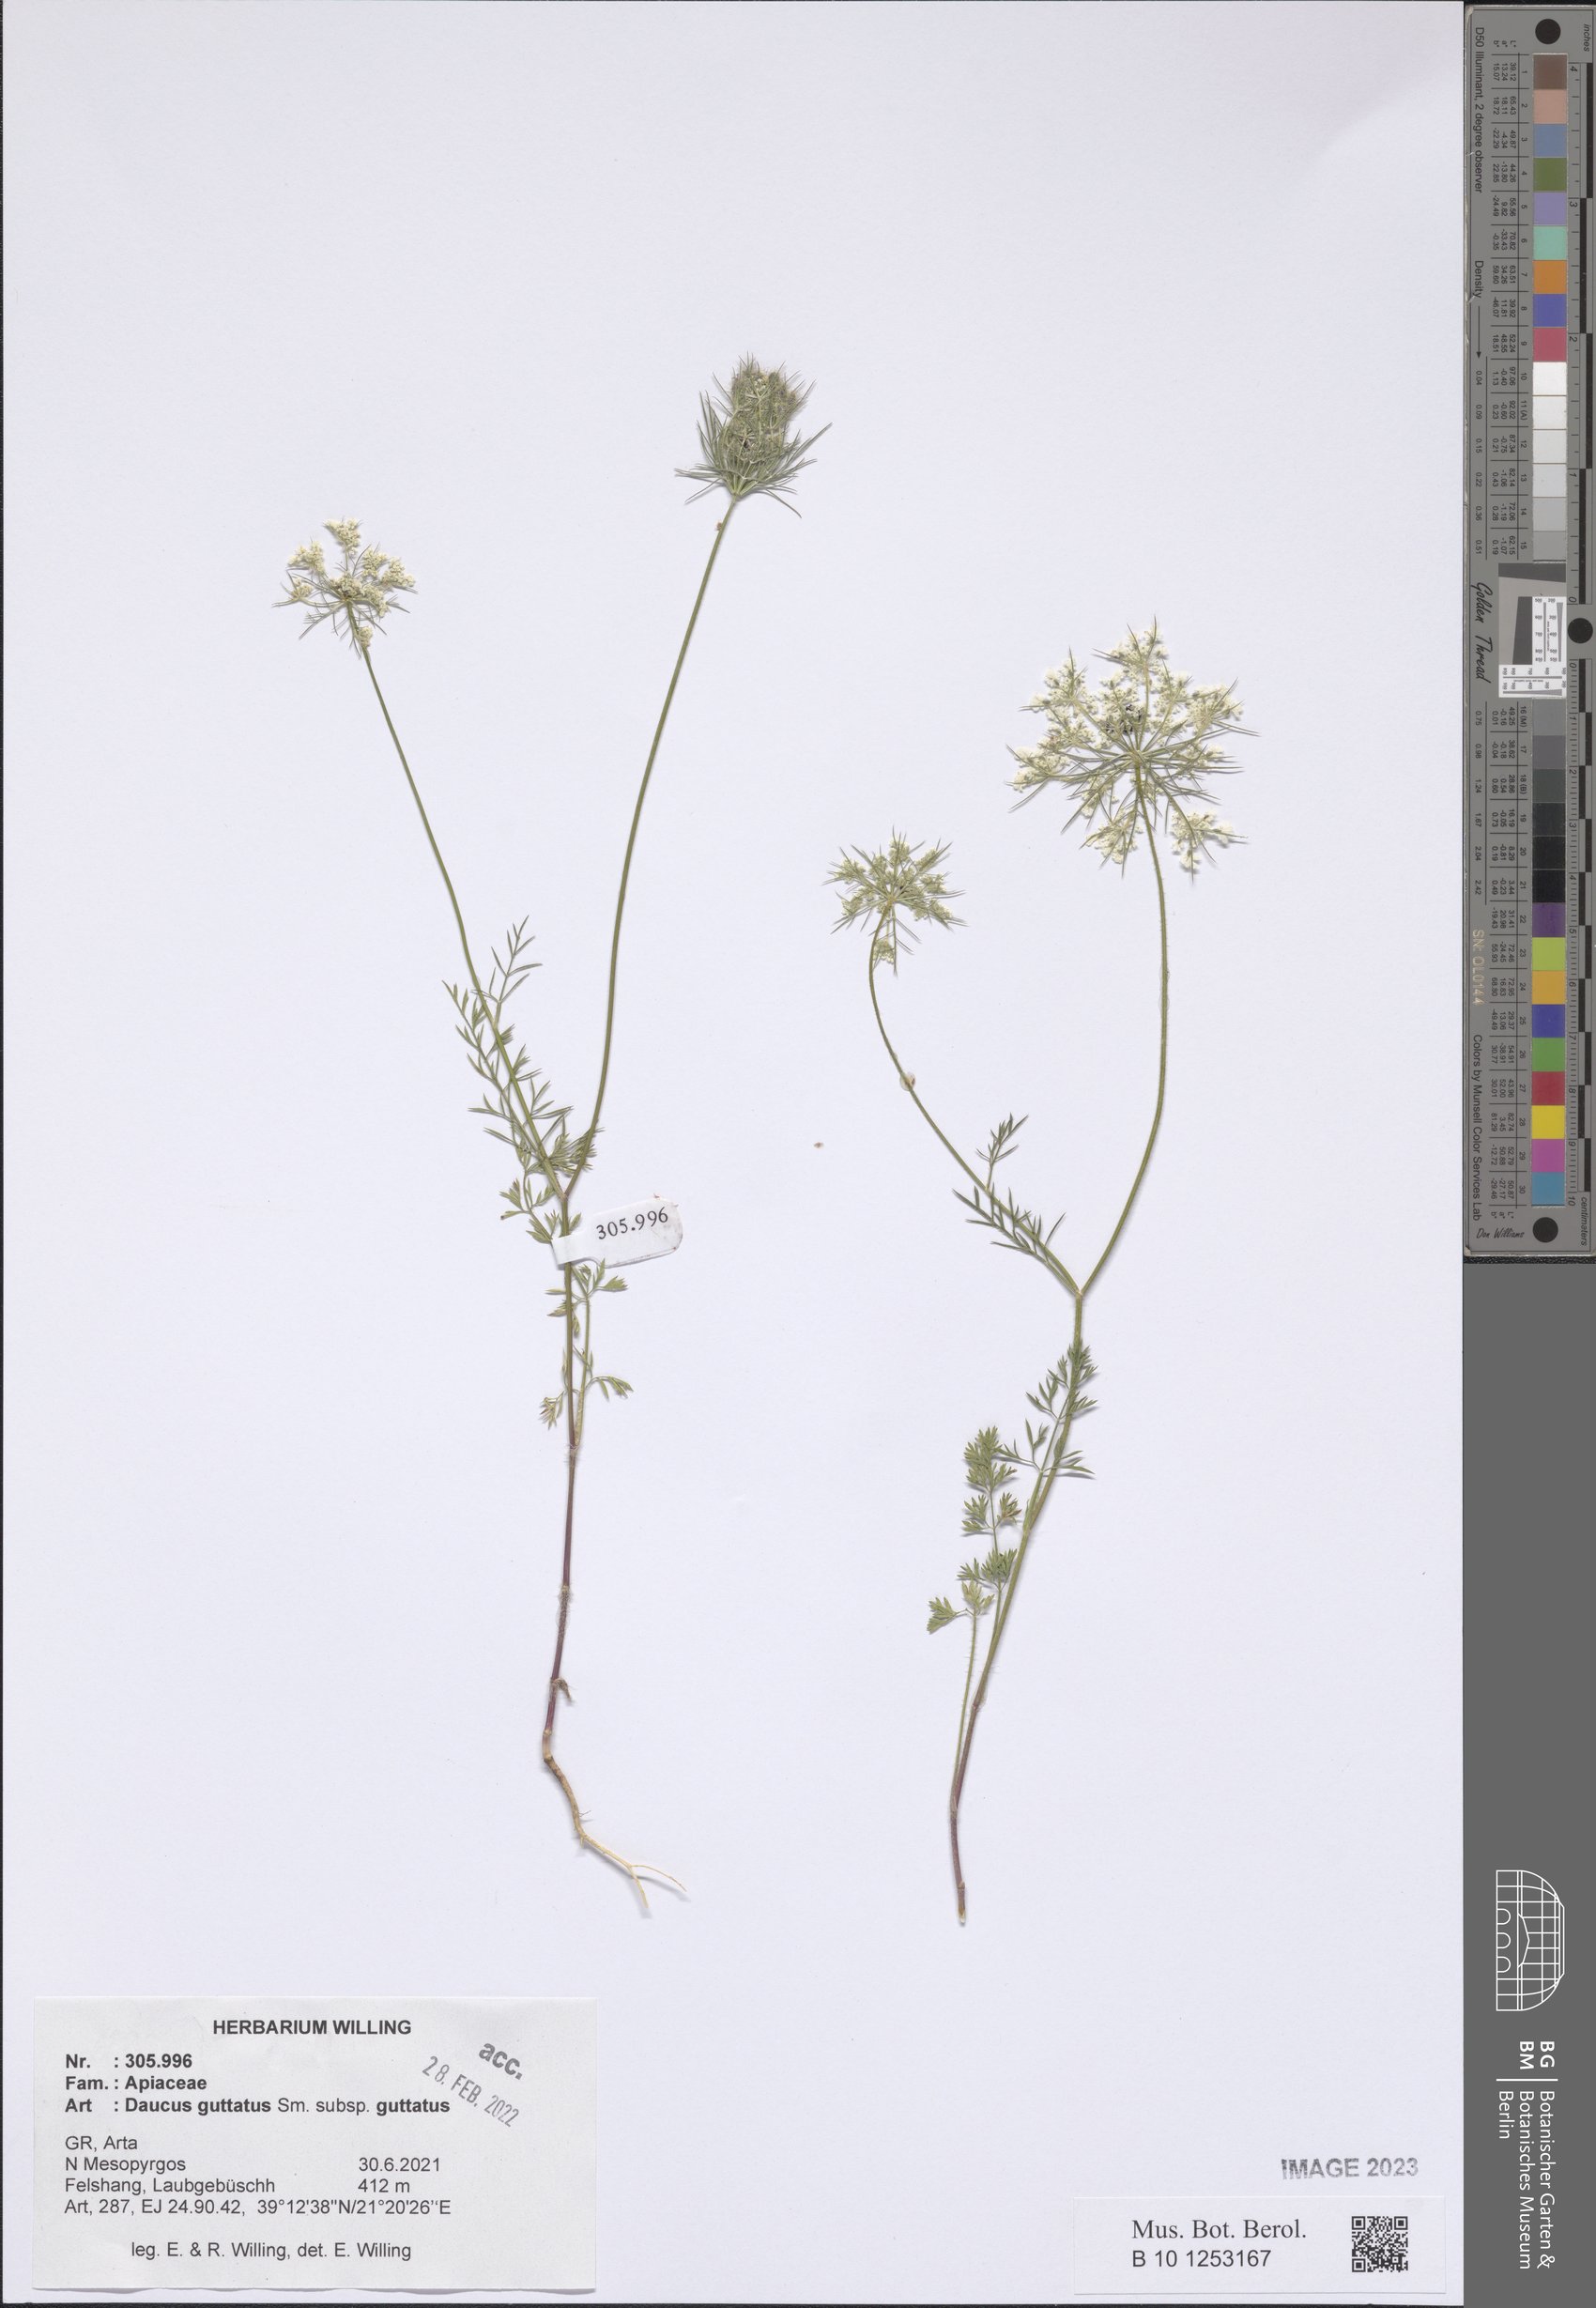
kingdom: Plantae
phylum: Tracheophyta
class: Magnoliopsida
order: Apiales
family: Apiaceae
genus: Daucus
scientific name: Daucus guttatus
